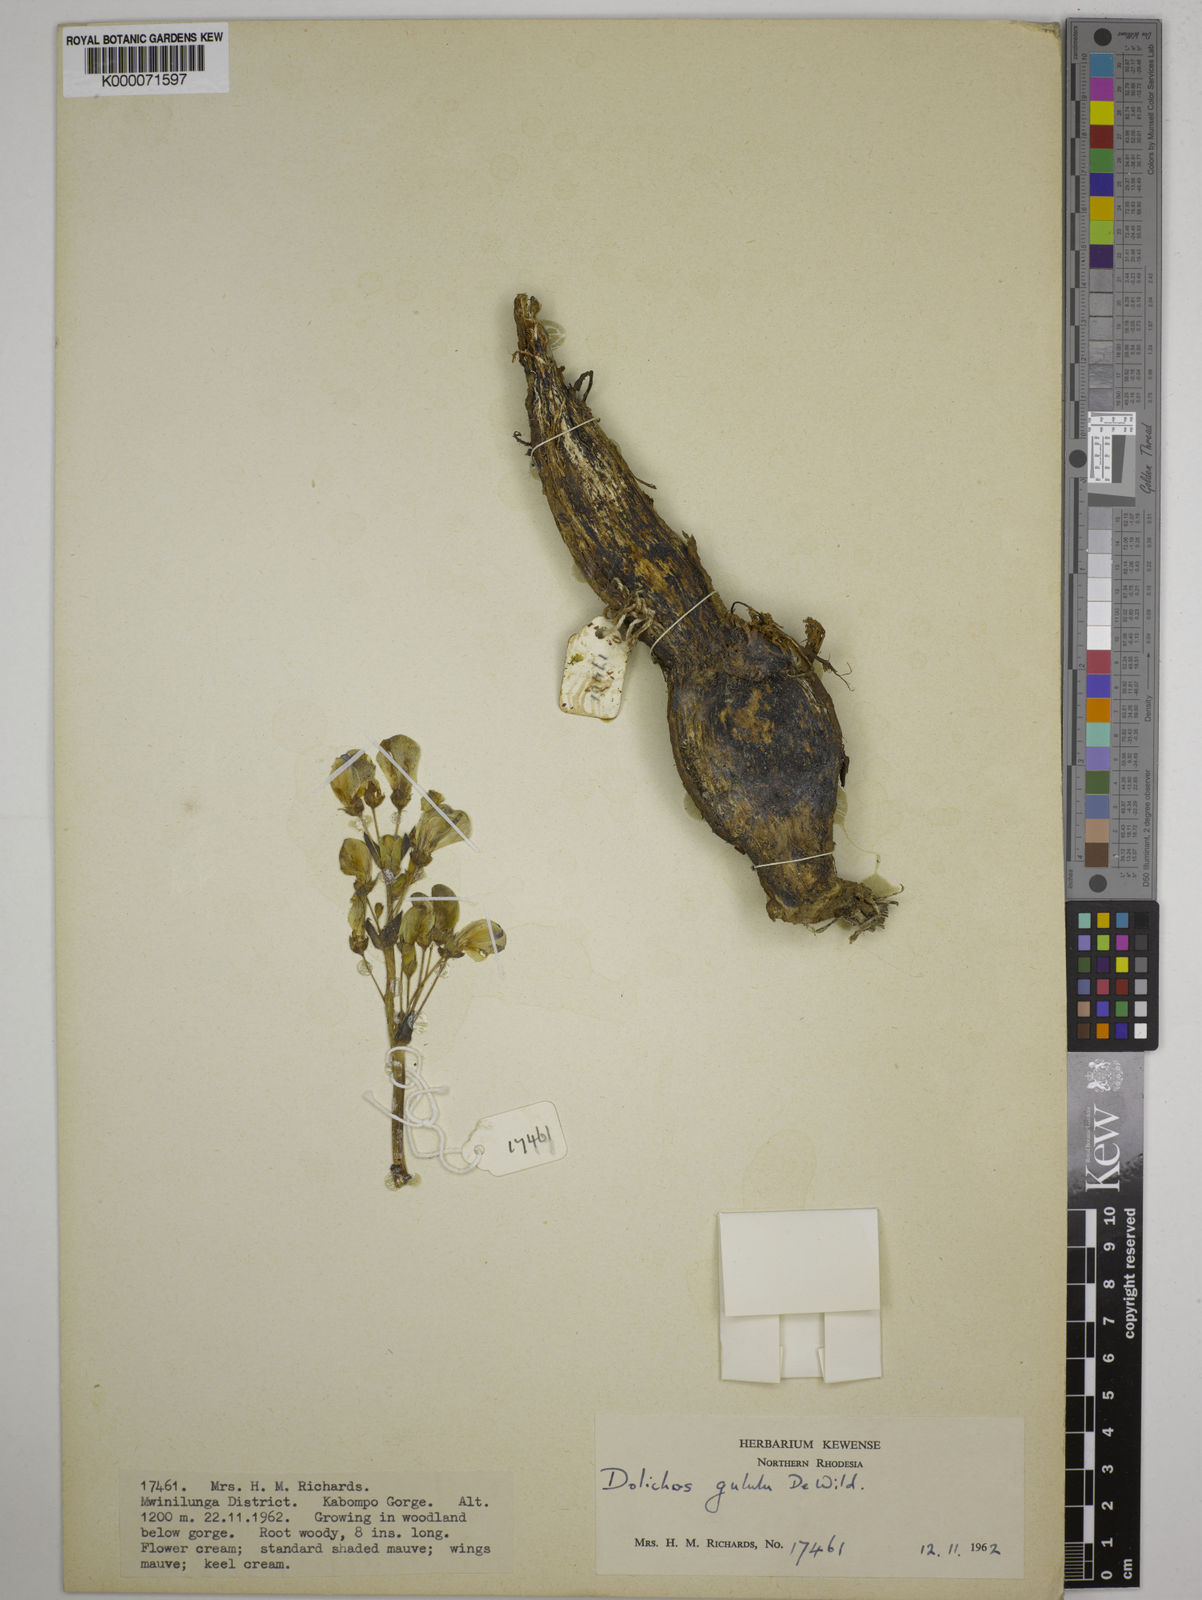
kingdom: Plantae
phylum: Tracheophyta
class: Magnoliopsida
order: Fabales
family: Fabaceae
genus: Dolichos
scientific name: Dolichos gululu
